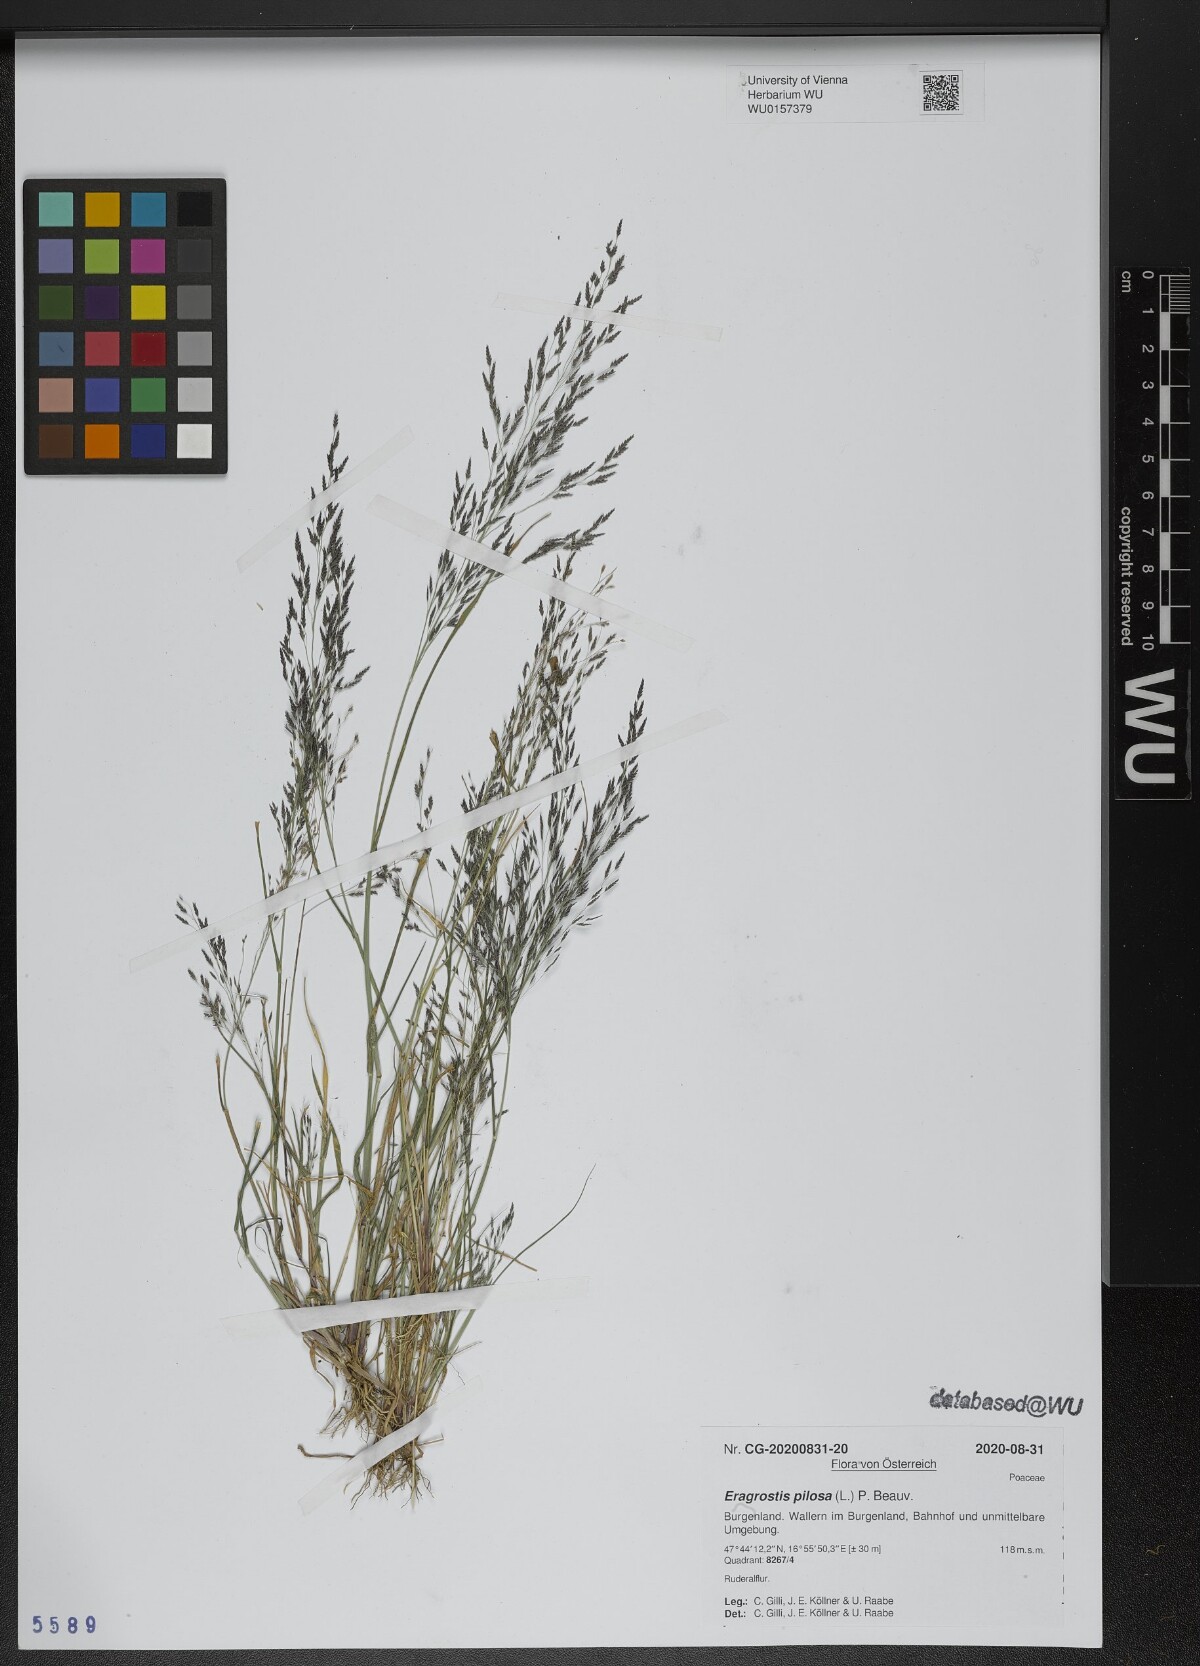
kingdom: Plantae
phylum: Tracheophyta
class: Liliopsida
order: Poales
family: Poaceae
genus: Eragrostis
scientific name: Eragrostis pilosa
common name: Indian lovegrass
